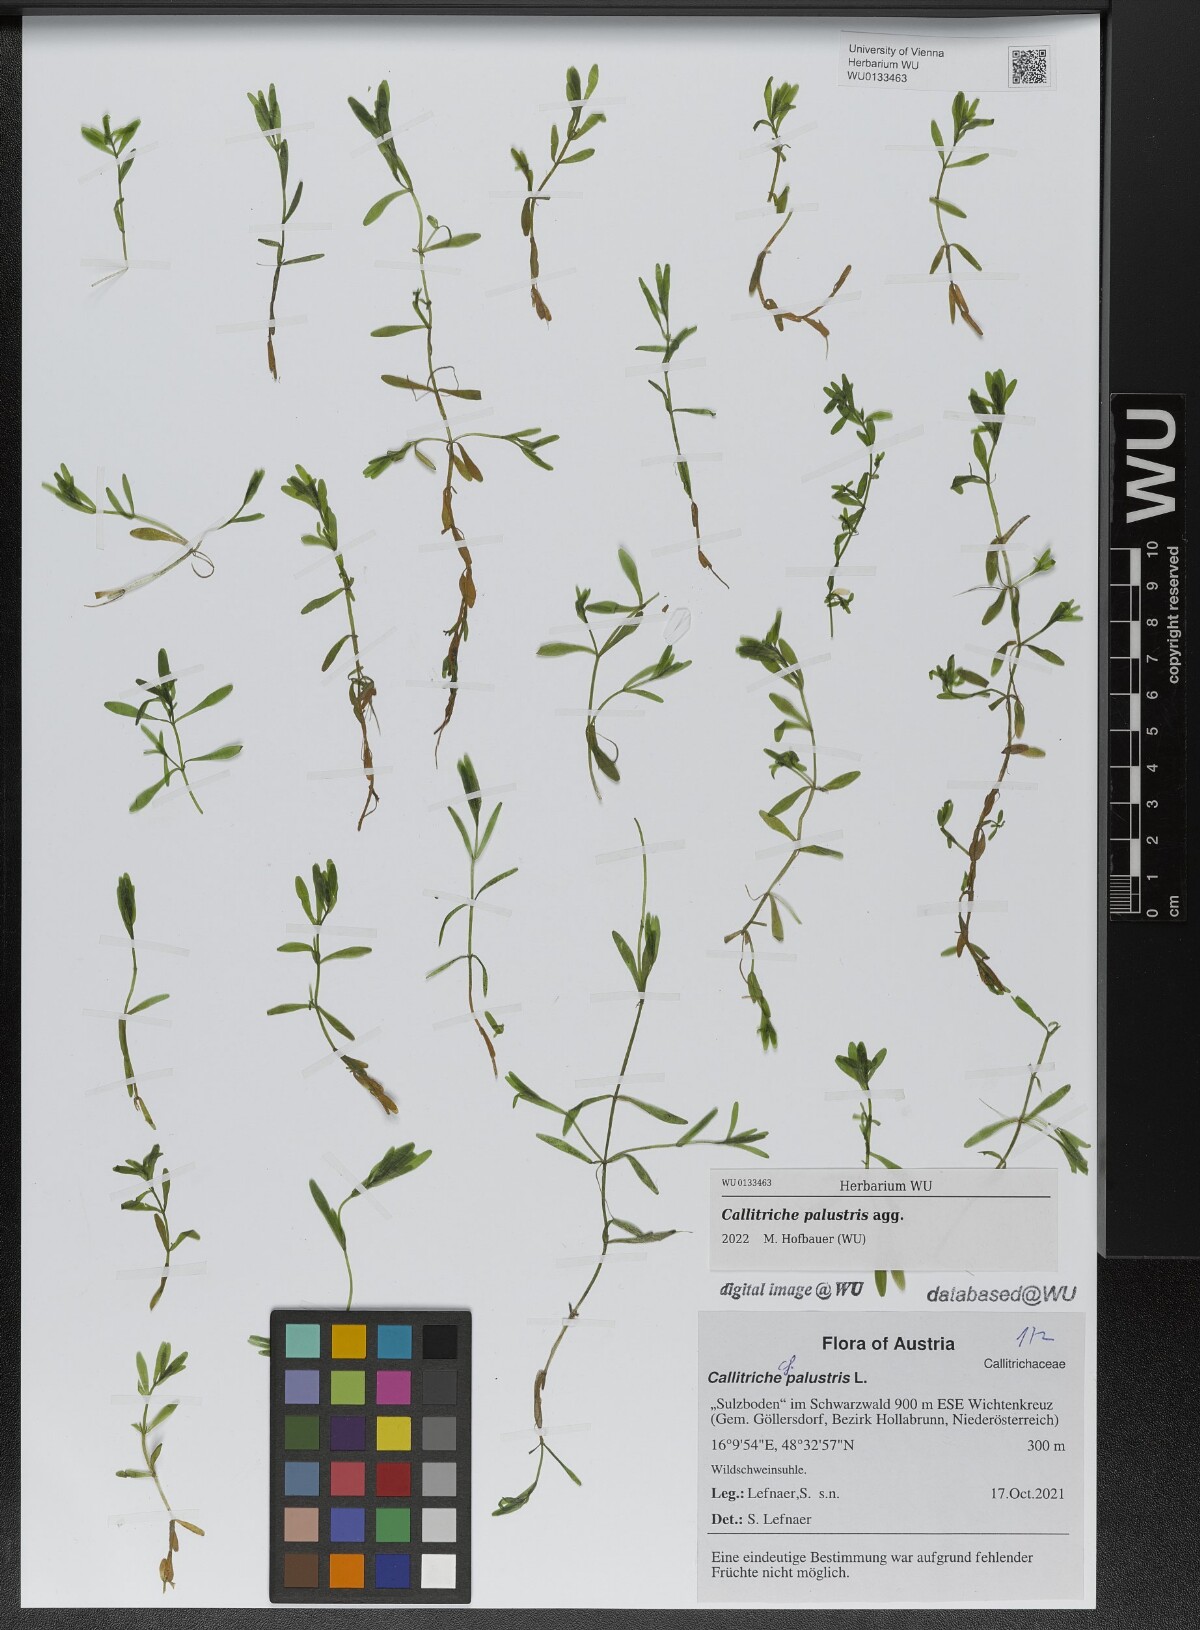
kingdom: Plantae
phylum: Tracheophyta
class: Magnoliopsida
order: Lamiales
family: Plantaginaceae
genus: Callitriche
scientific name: Callitriche palustris
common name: Spring water-starwort
